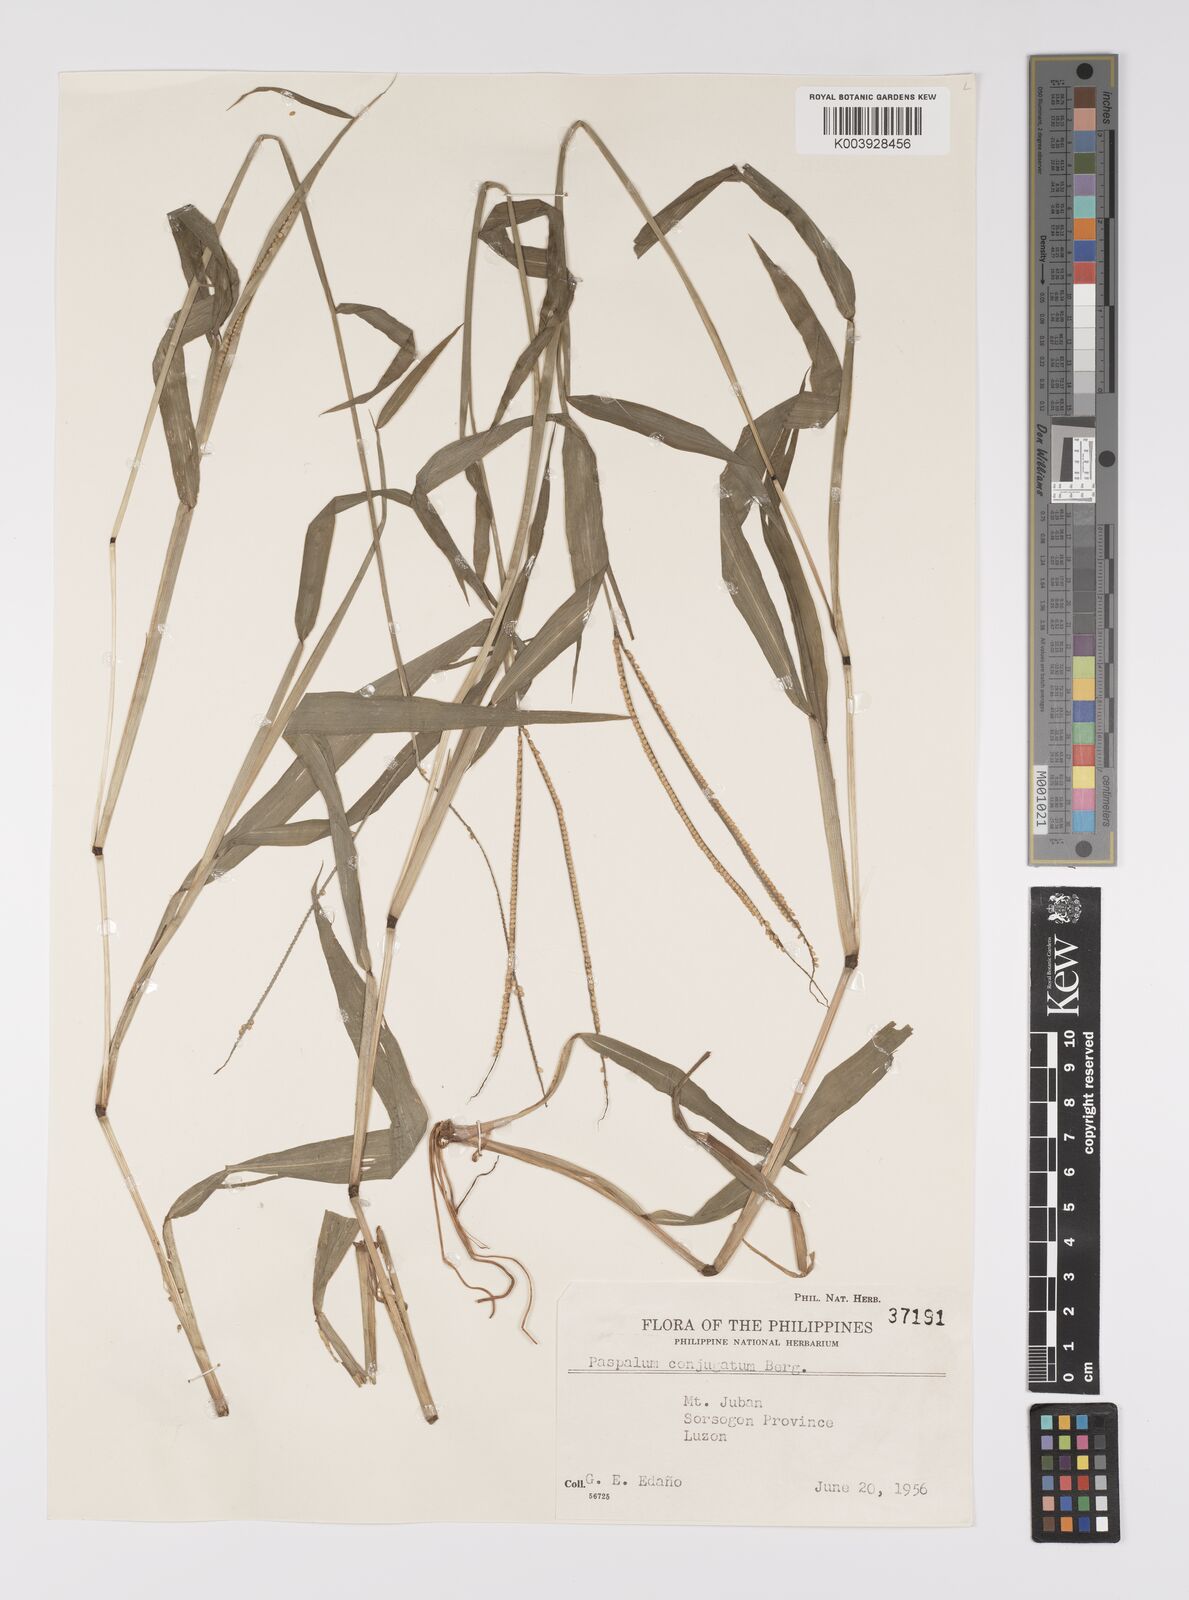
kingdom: Plantae
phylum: Tracheophyta
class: Liliopsida
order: Poales
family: Poaceae
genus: Paspalum
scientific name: Paspalum conjugatum
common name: Hilograss
